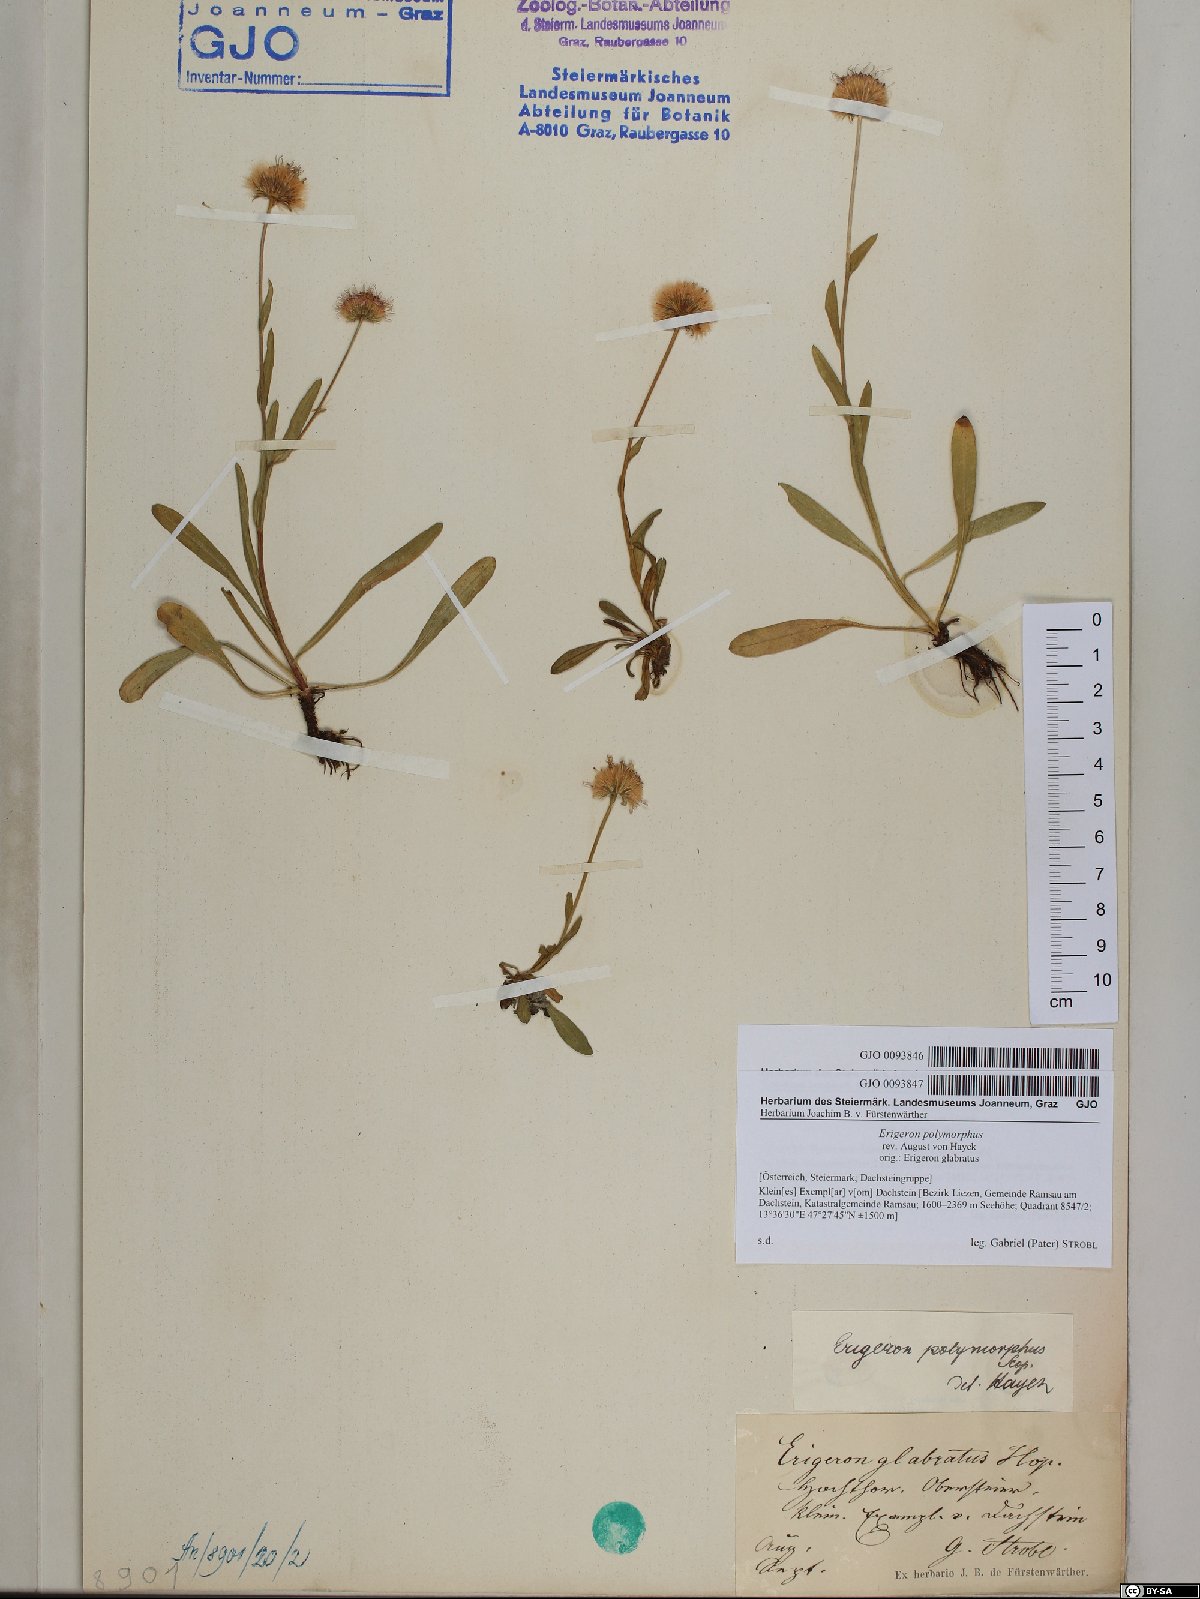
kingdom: Plantae
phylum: Tracheophyta
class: Magnoliopsida
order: Asterales
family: Asteraceae
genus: Erigeron
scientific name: Erigeron alpinus
